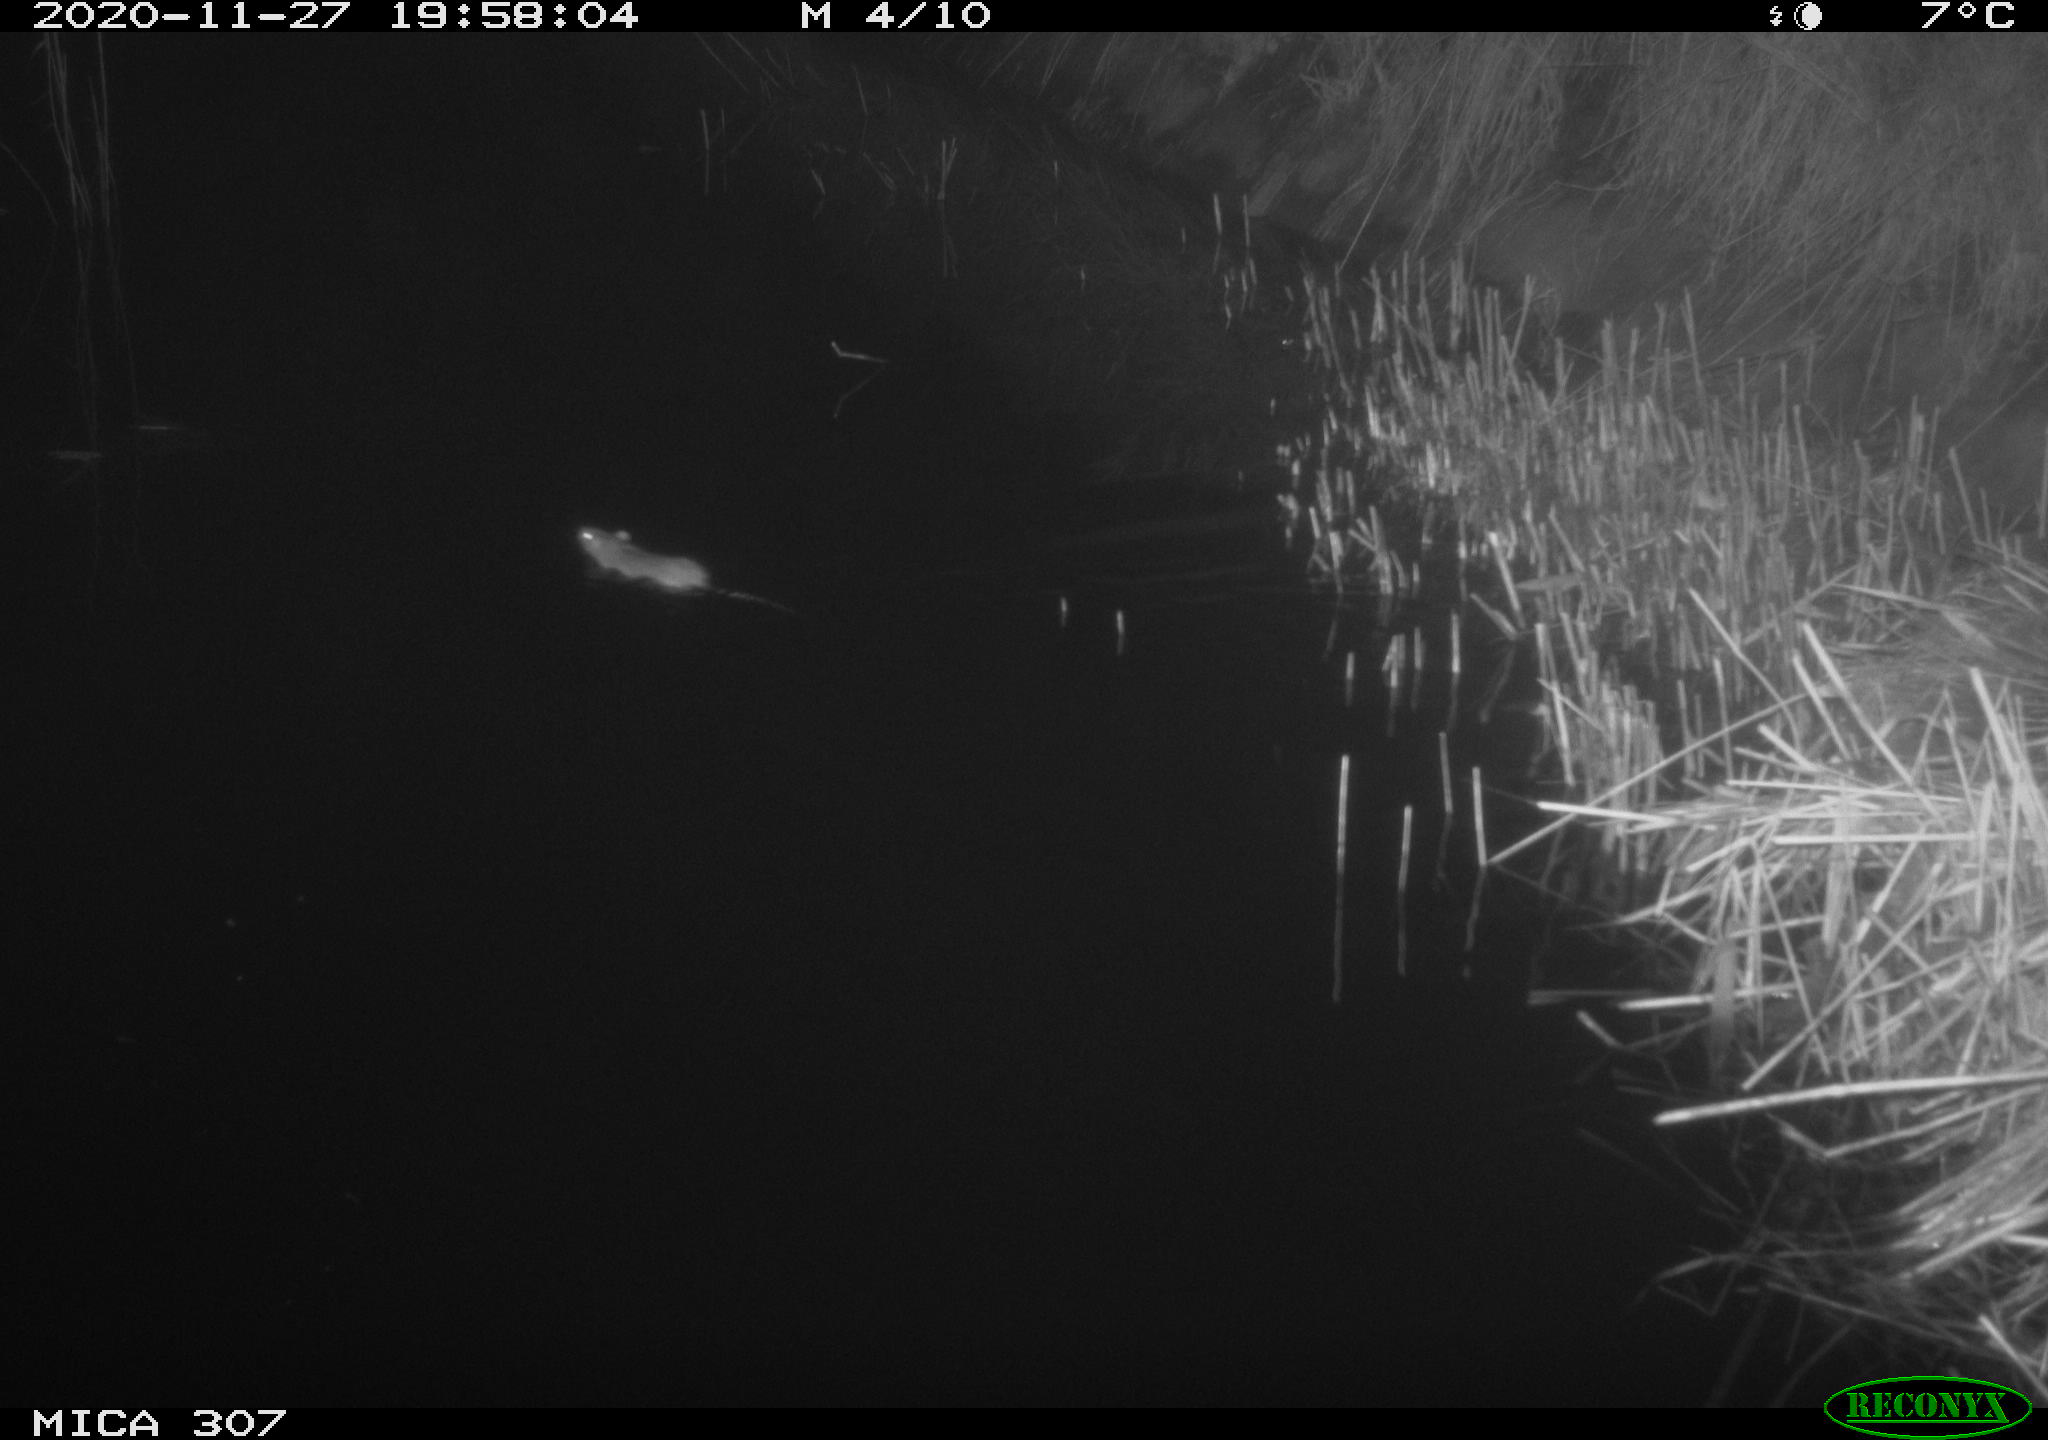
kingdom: Animalia
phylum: Chordata
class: Mammalia
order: Rodentia
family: Muridae
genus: Rattus
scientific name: Rattus norvegicus
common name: Brown rat
